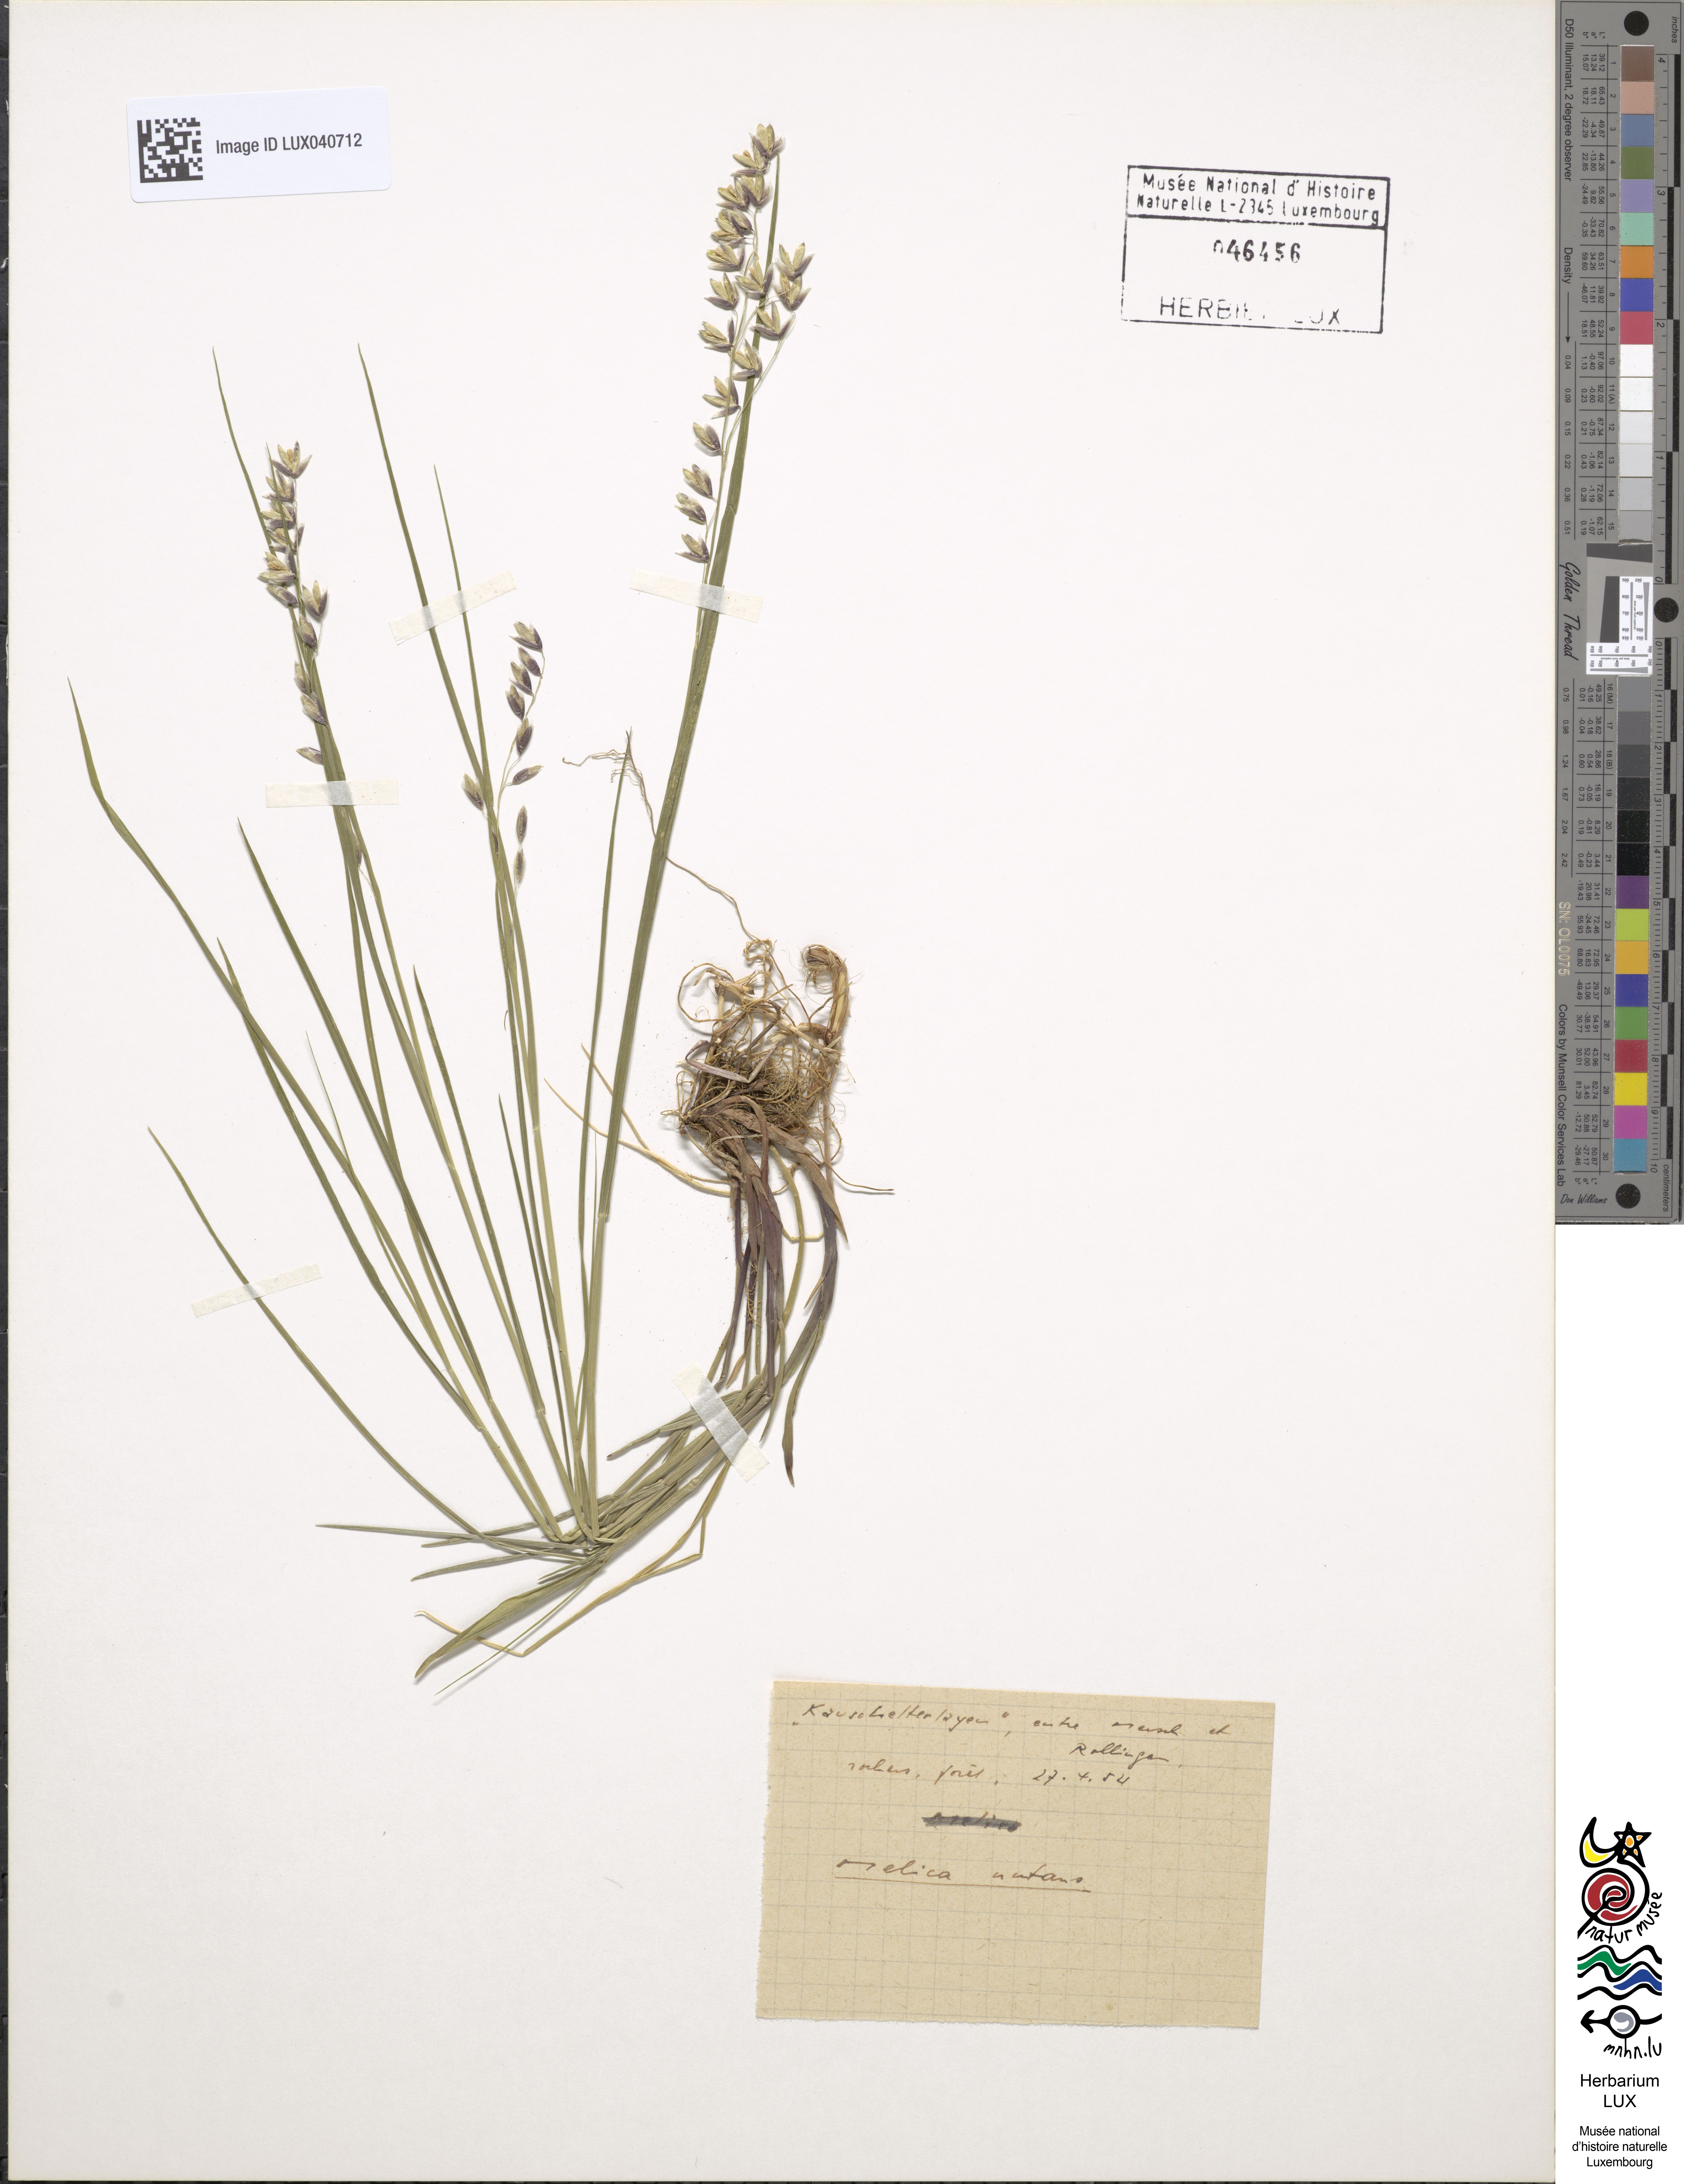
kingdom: Plantae
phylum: Tracheophyta
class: Liliopsida
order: Poales
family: Poaceae
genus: Melica
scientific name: Melica nutans
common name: Mountain melick
